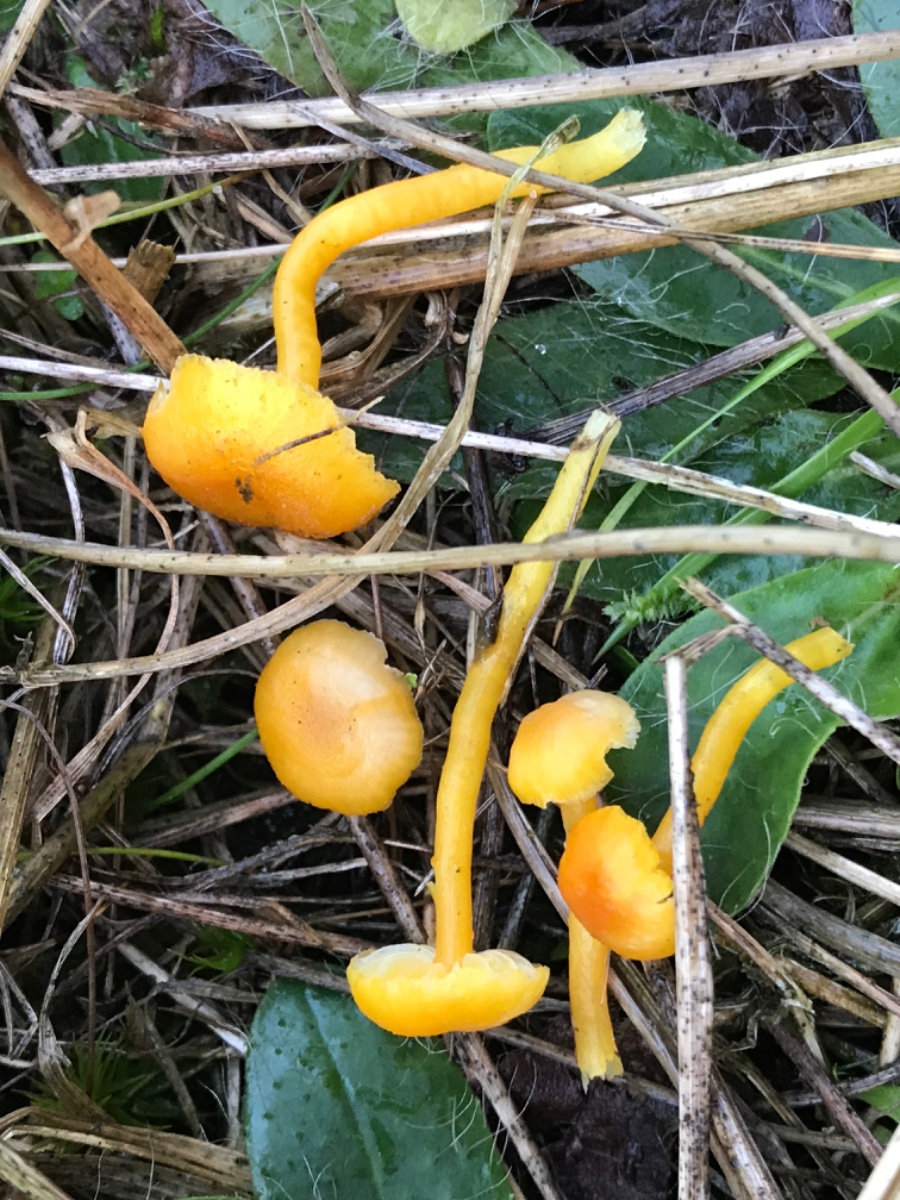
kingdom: Fungi
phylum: Basidiomycota
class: Agaricomycetes
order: Agaricales
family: Hygrophoraceae
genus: Hygrocybe
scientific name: Hygrocybe miniata
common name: mønje-vokshat
